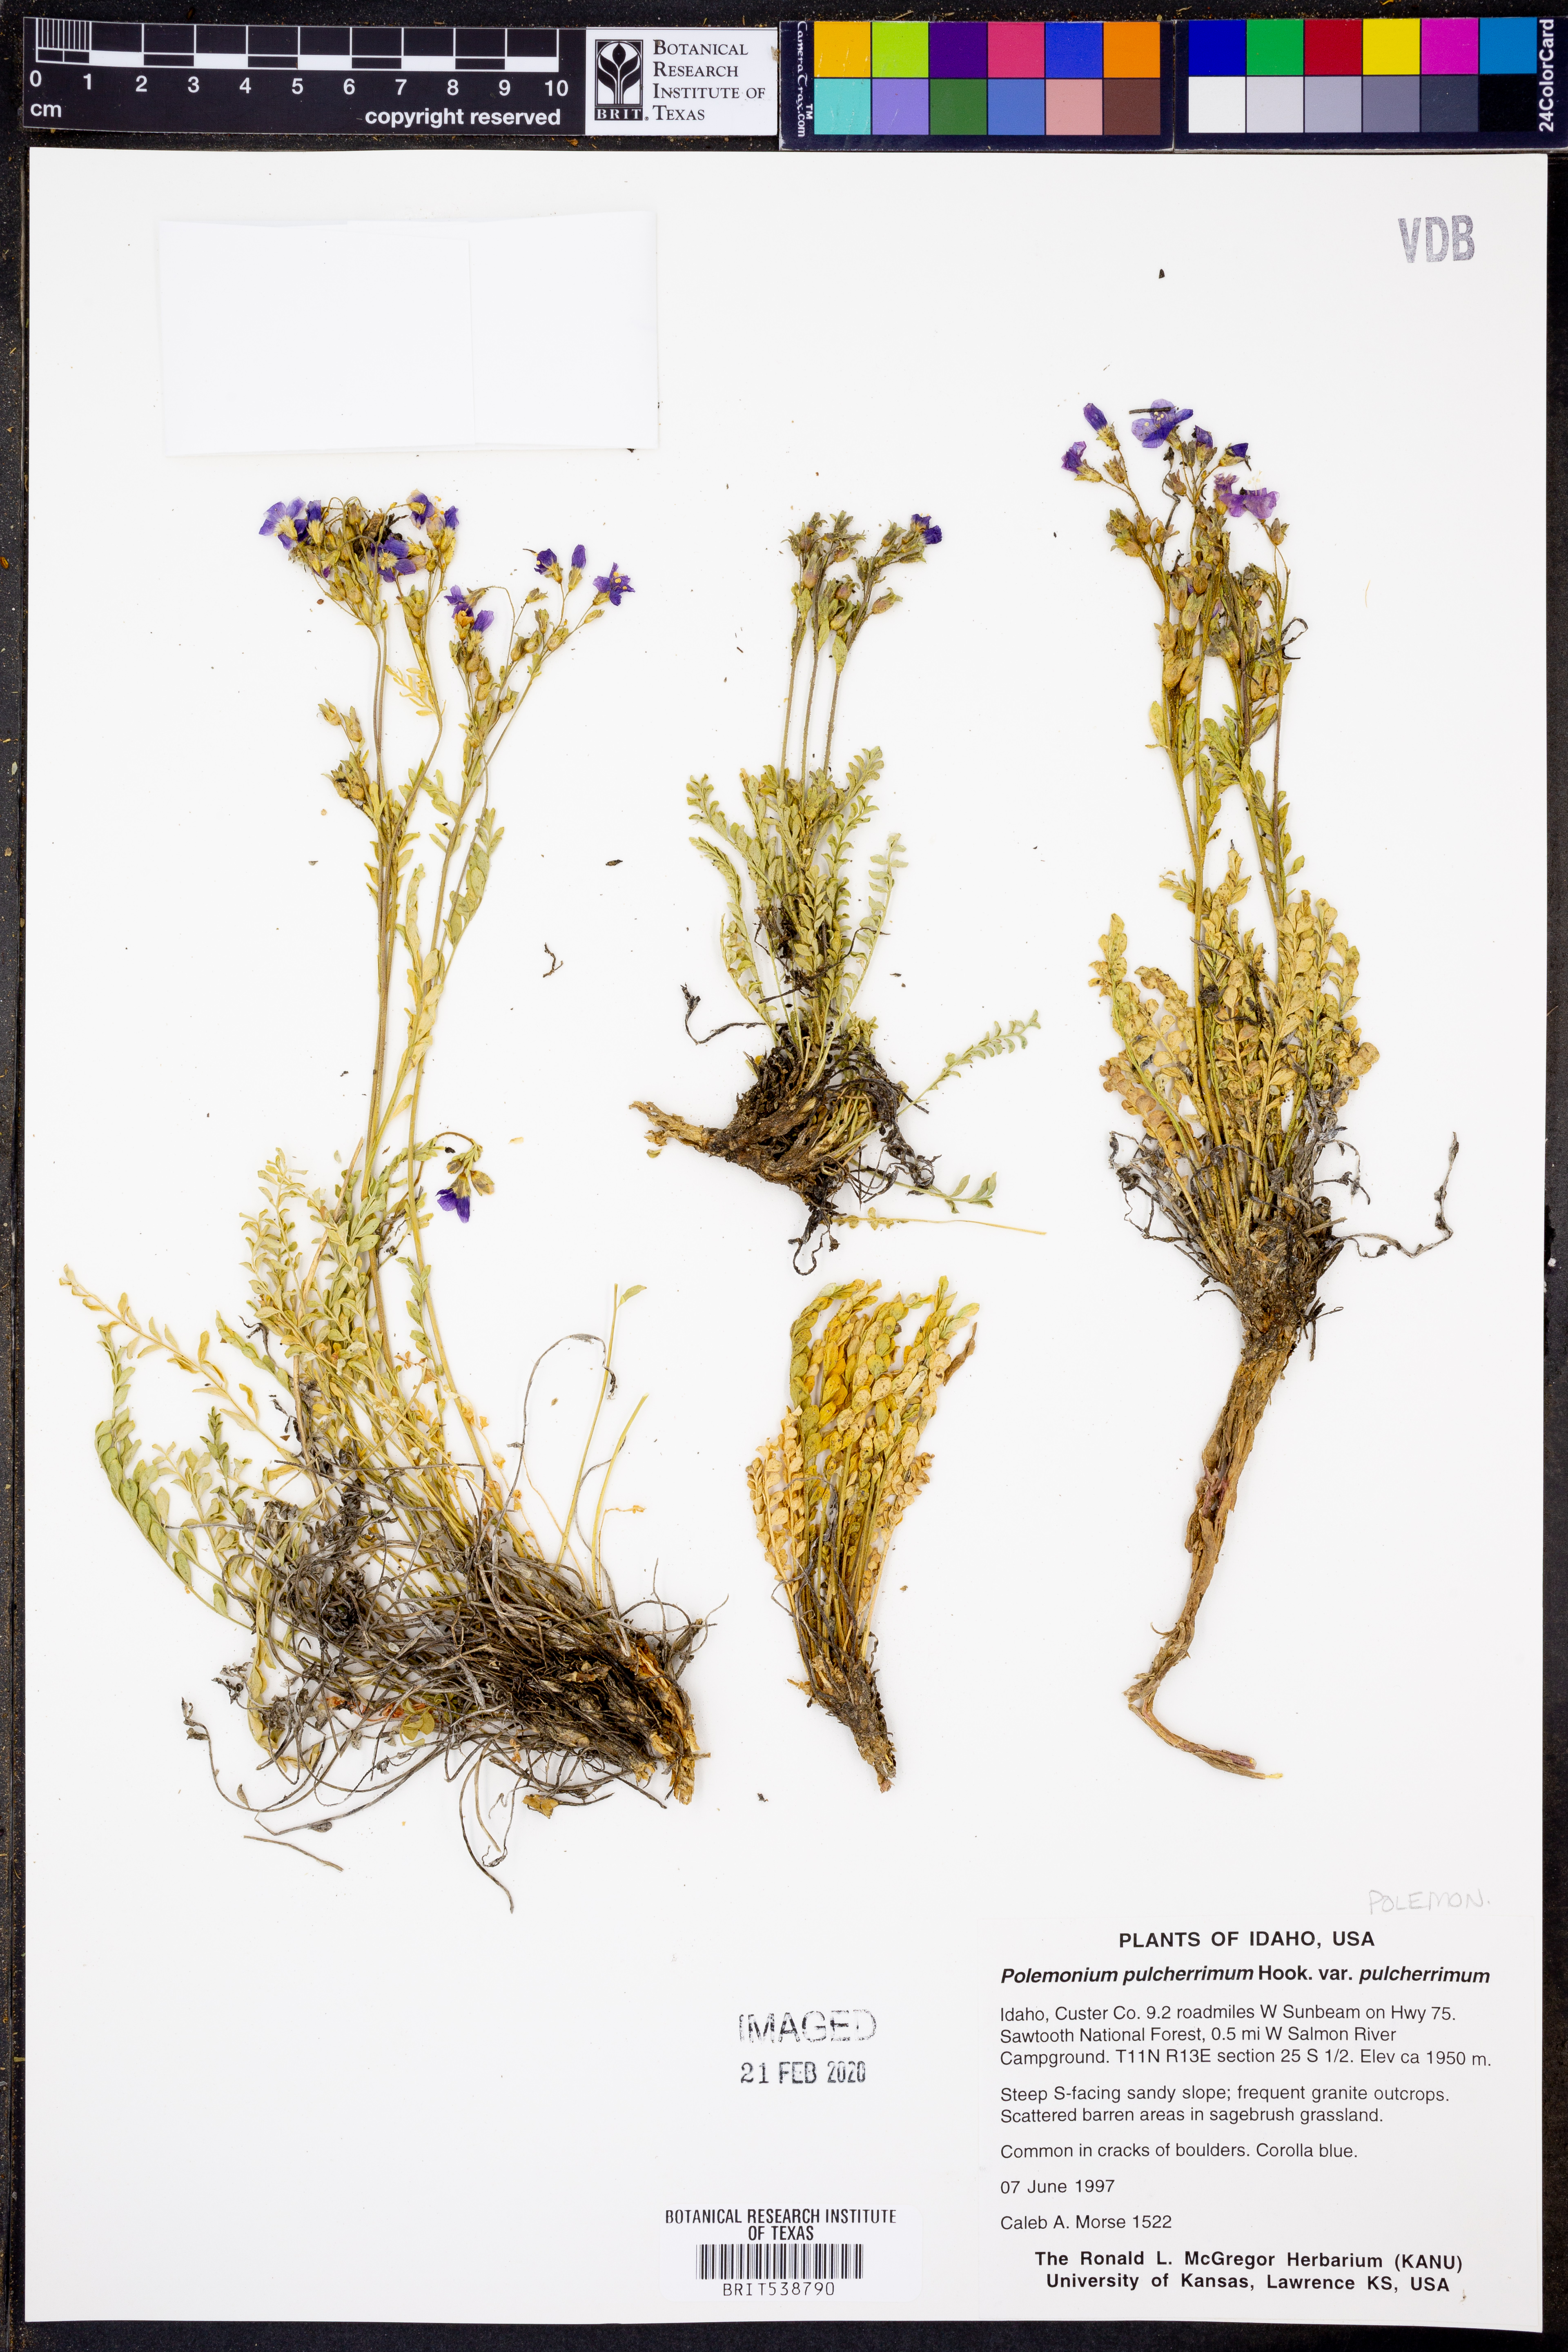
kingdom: Plantae
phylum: Tracheophyta
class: Magnoliopsida
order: Ericales
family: Polemoniaceae
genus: Polemonium
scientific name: Polemonium pulcherrimum
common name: Short jacob's-ladder
